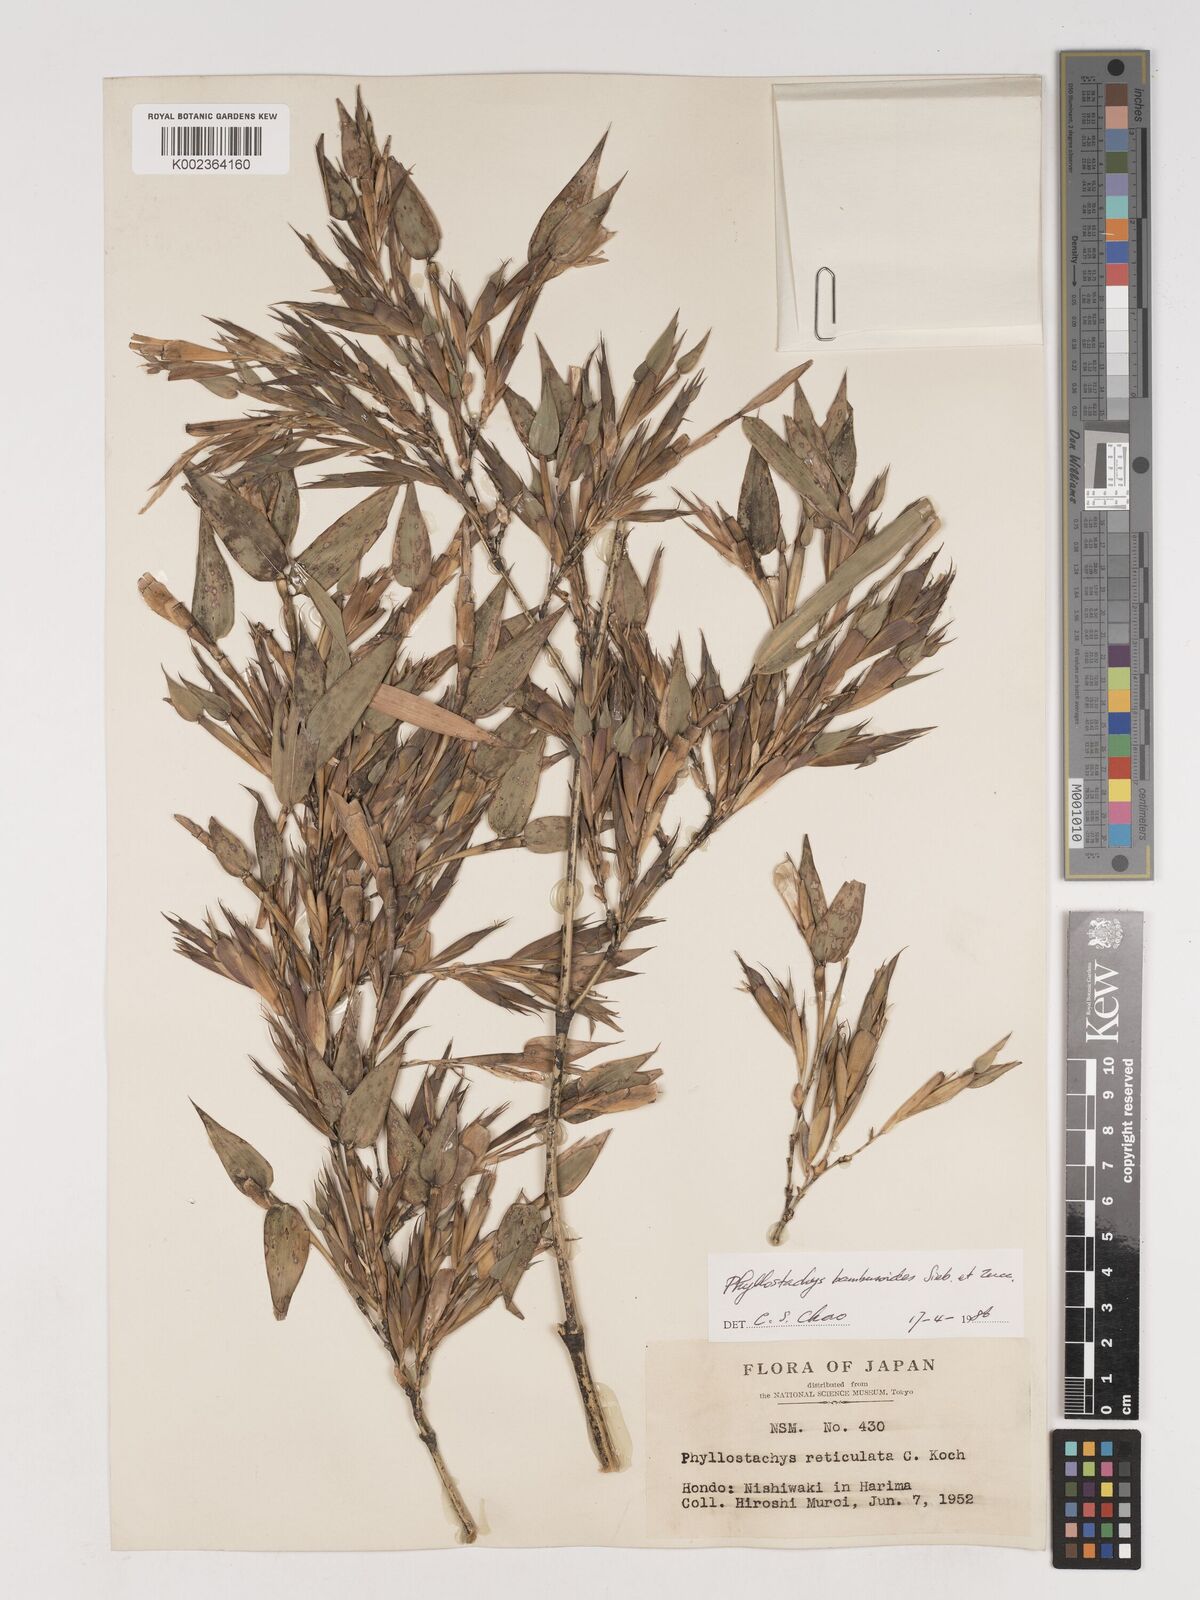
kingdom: Plantae
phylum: Tracheophyta
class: Liliopsida
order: Poales
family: Poaceae
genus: Phyllostachys
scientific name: Phyllostachys reticulata
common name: Bamboo
